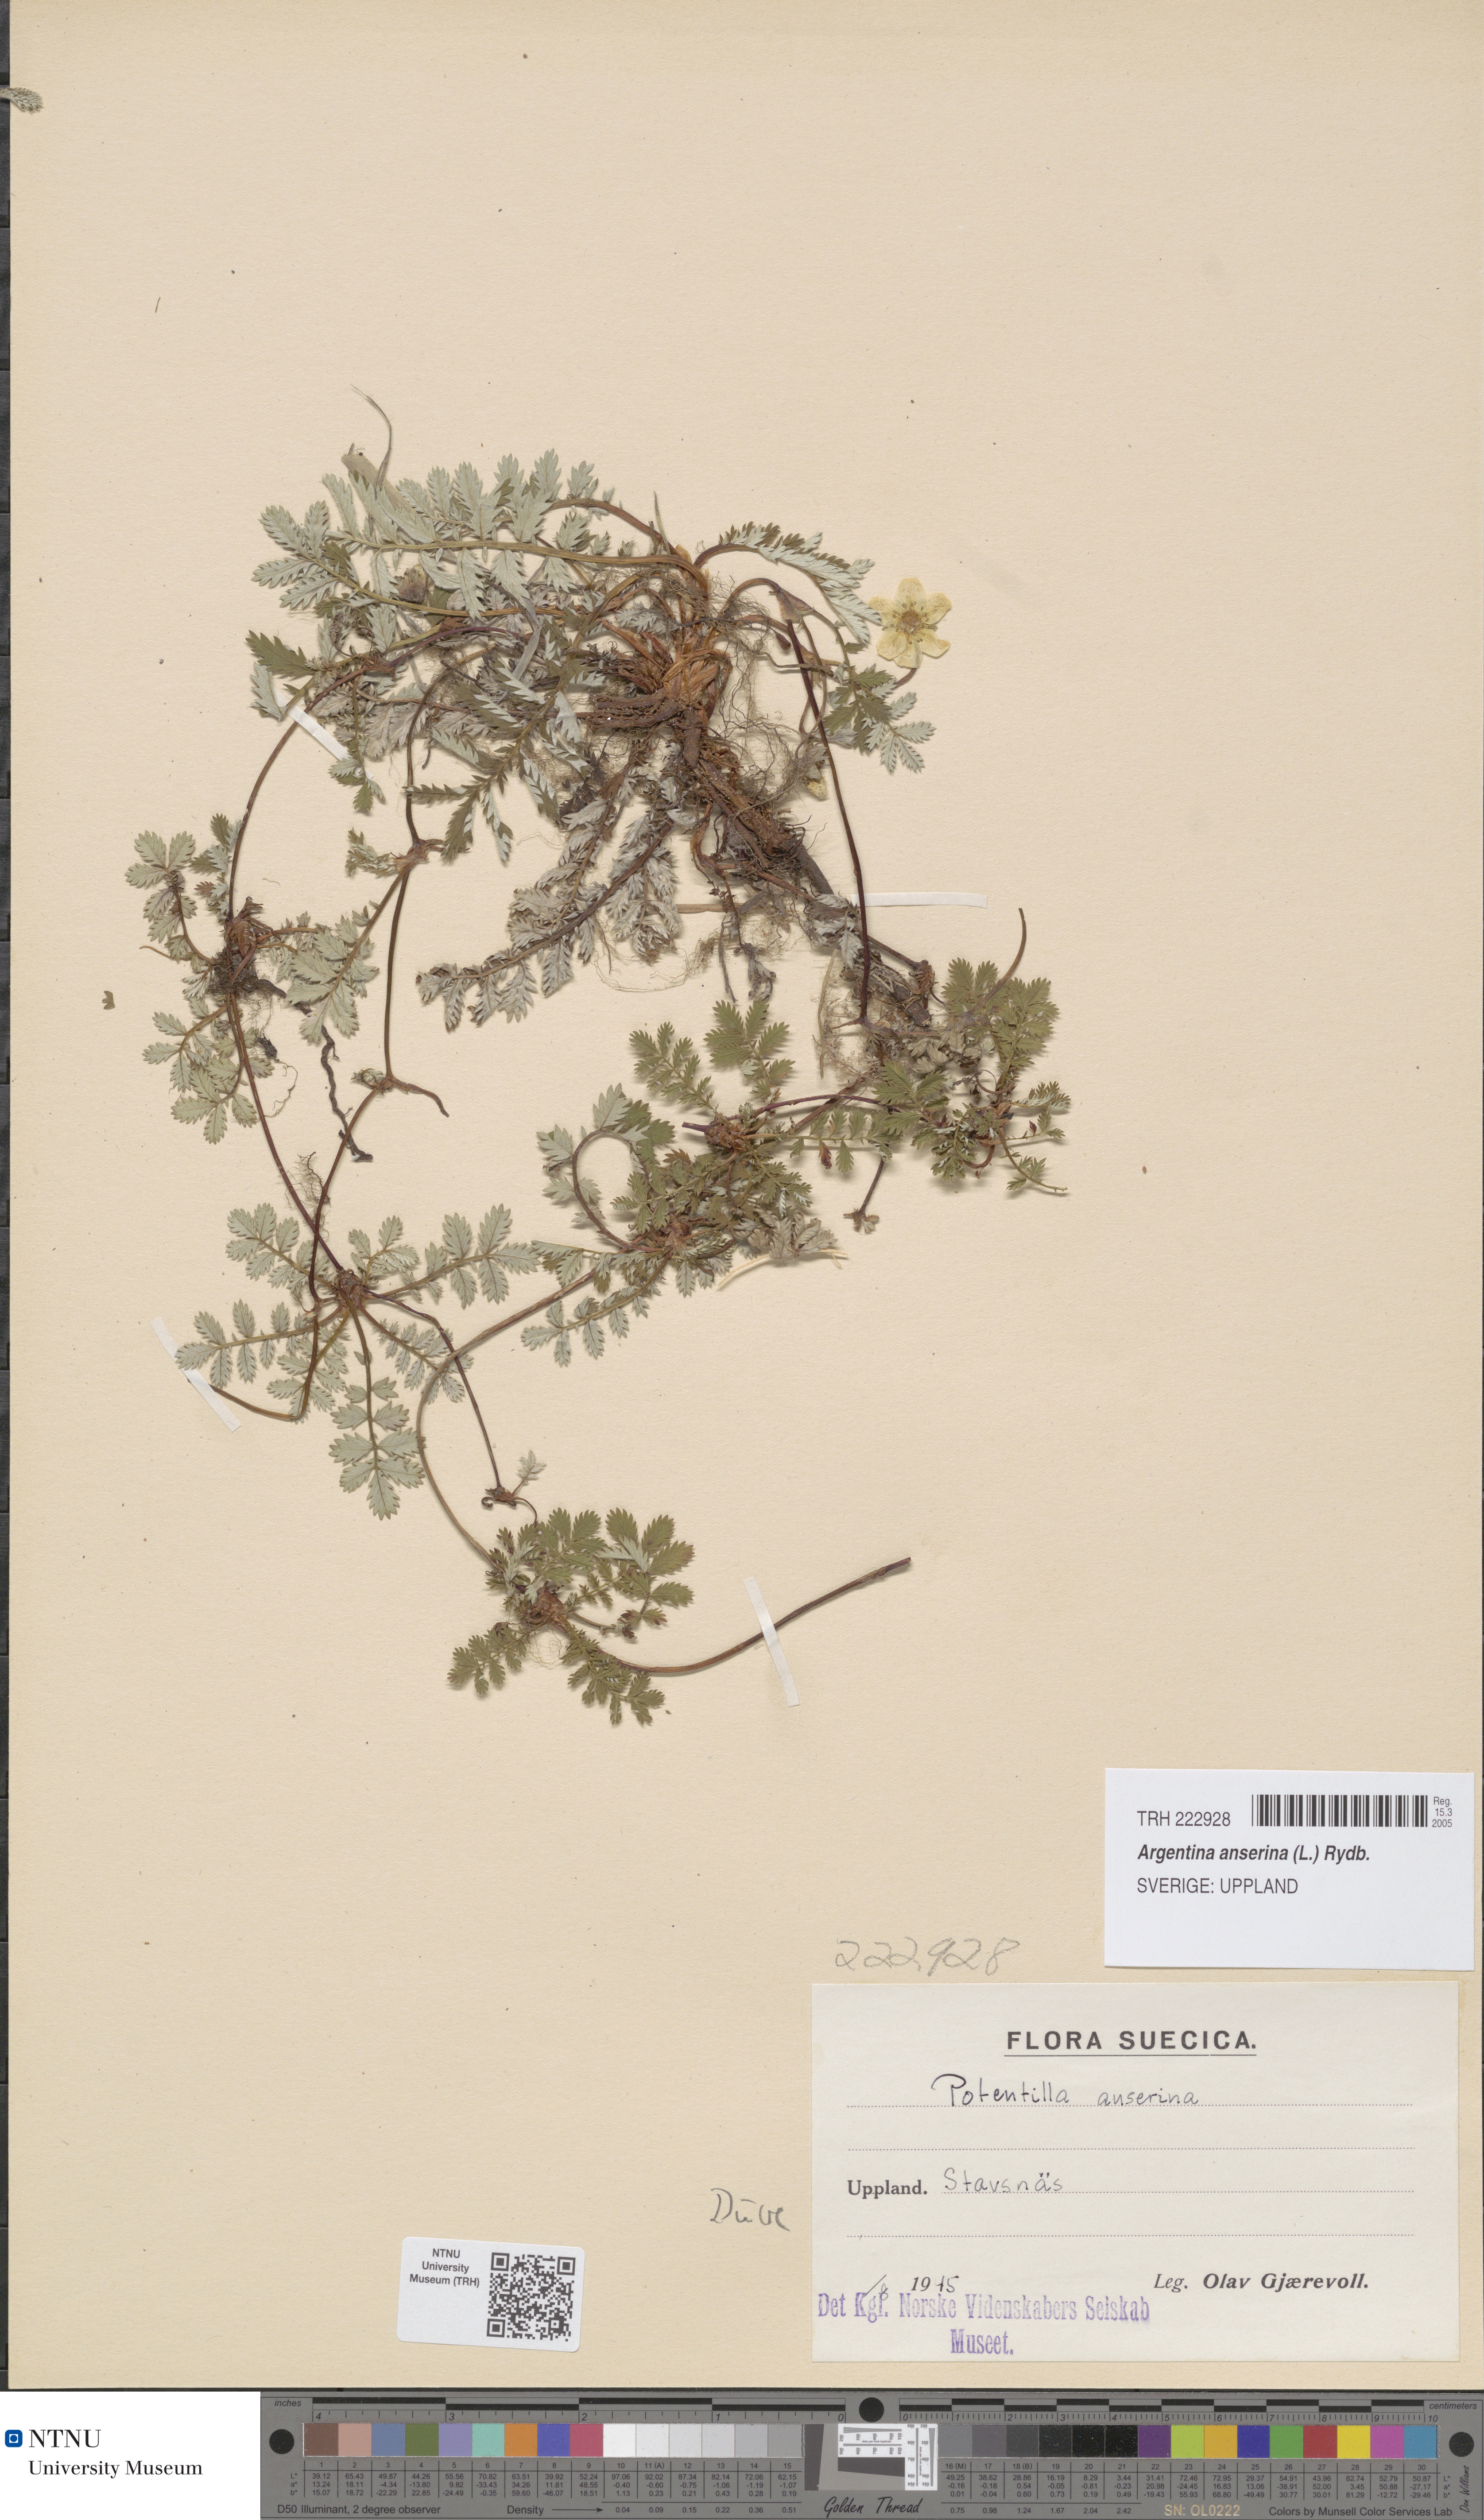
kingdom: Plantae
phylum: Tracheophyta
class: Magnoliopsida
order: Rosales
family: Rosaceae
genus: Argentina
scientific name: Argentina anserina
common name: Common silverweed
